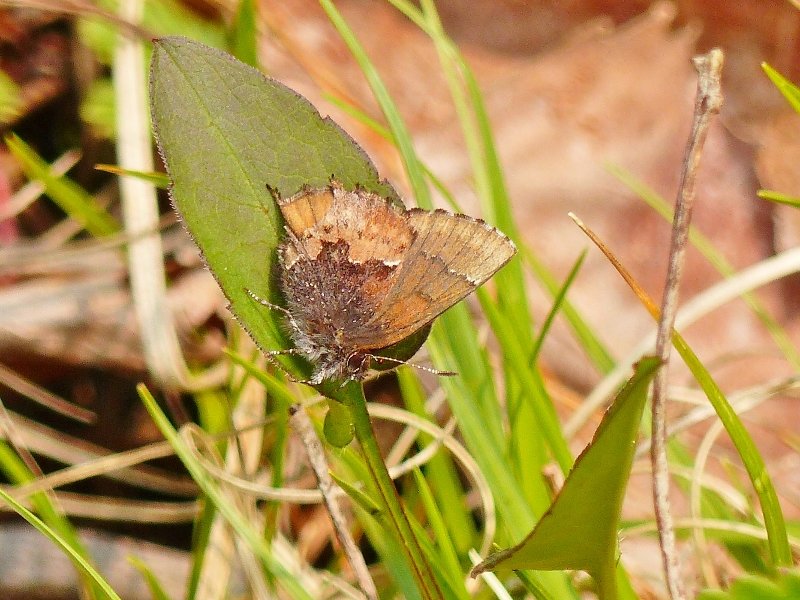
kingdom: Animalia
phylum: Arthropoda
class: Insecta
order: Lepidoptera
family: Lycaenidae
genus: Incisalia
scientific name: Incisalia henrici
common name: Henry's Elfin
